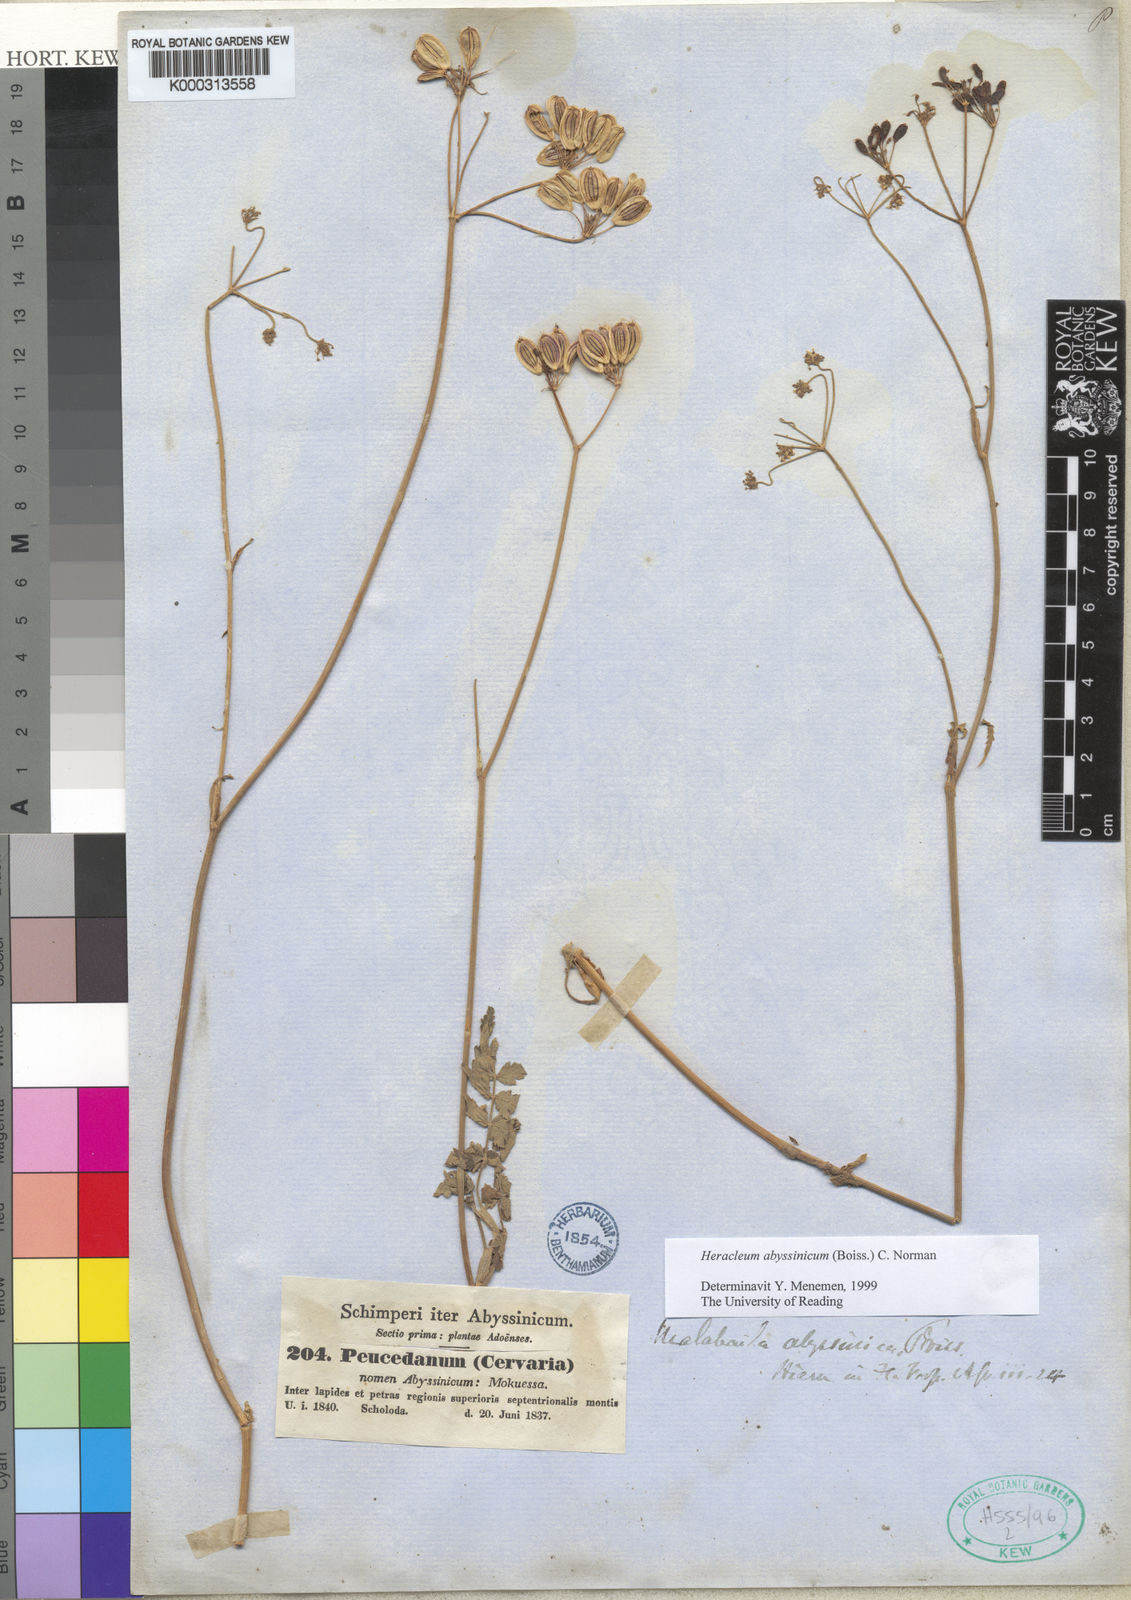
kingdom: Plantae
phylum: Tracheophyta
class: Magnoliopsida
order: Apiales
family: Apiaceae
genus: Heracleum
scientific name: Heracleum abyssinicum
